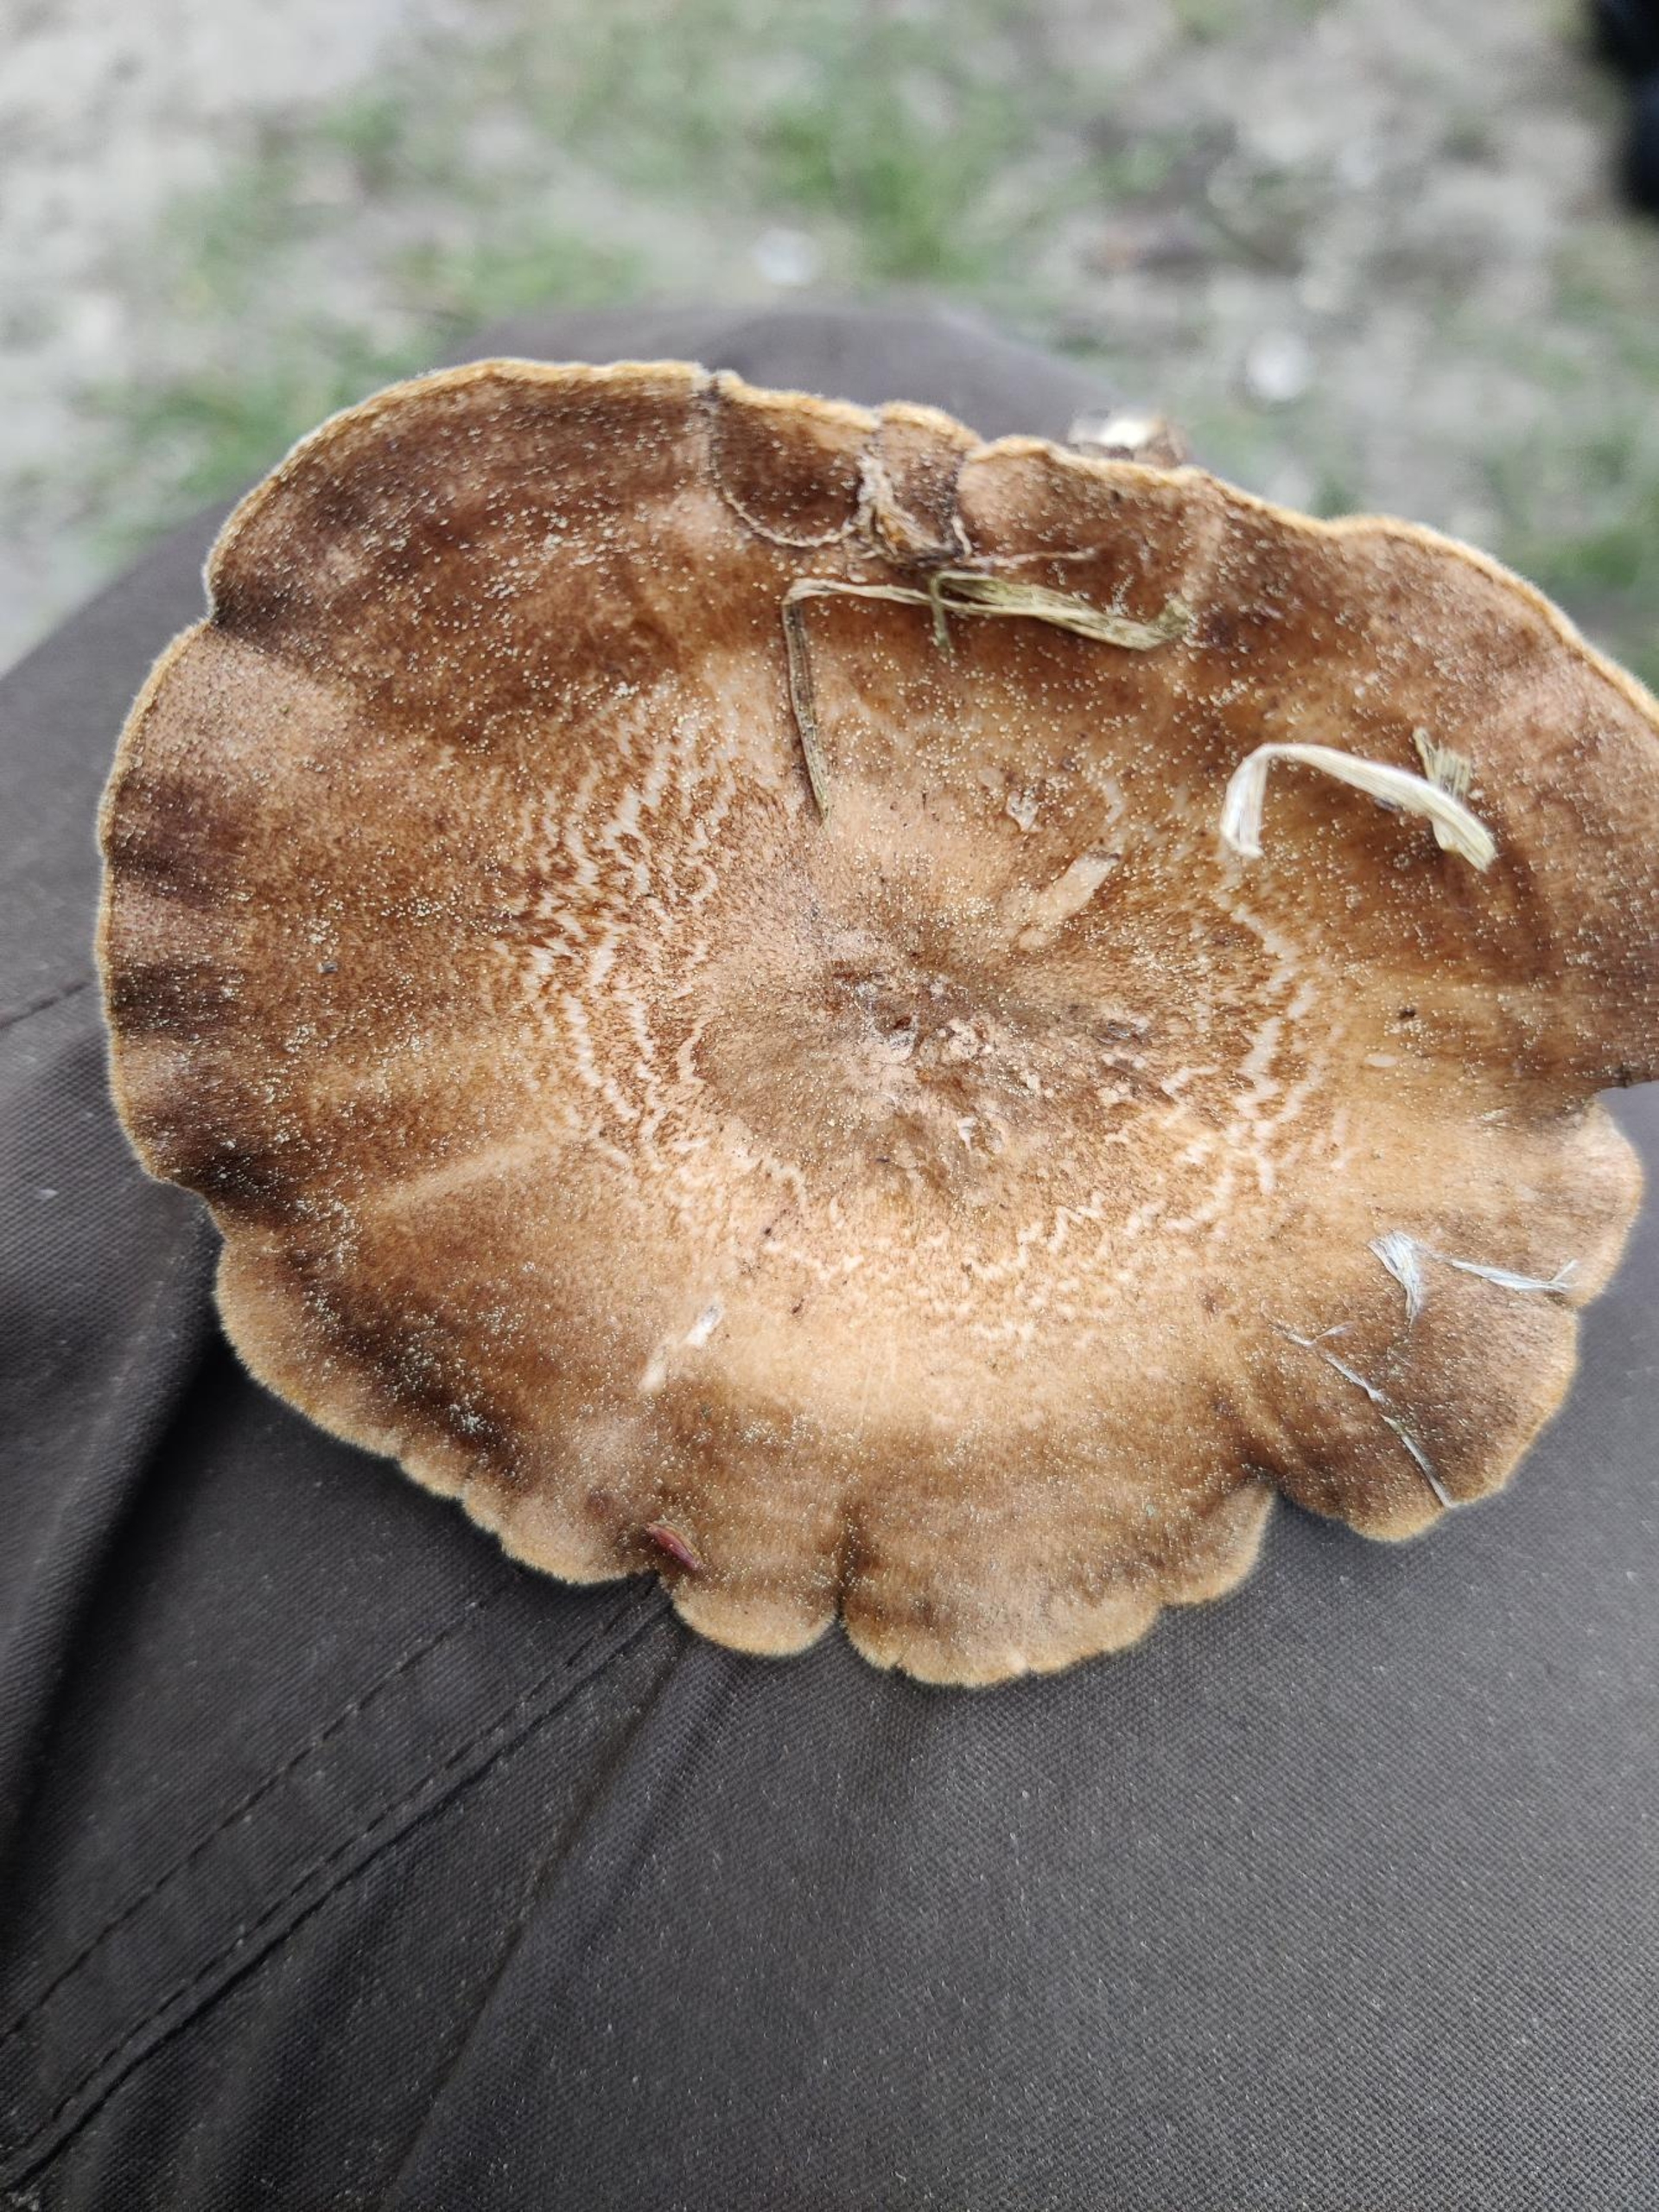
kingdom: Fungi
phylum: Basidiomycota
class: Agaricomycetes
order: Polyporales
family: Polyporaceae
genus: Lentinus
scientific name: Lentinus substrictus
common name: Forårs-stilkporesvamp
